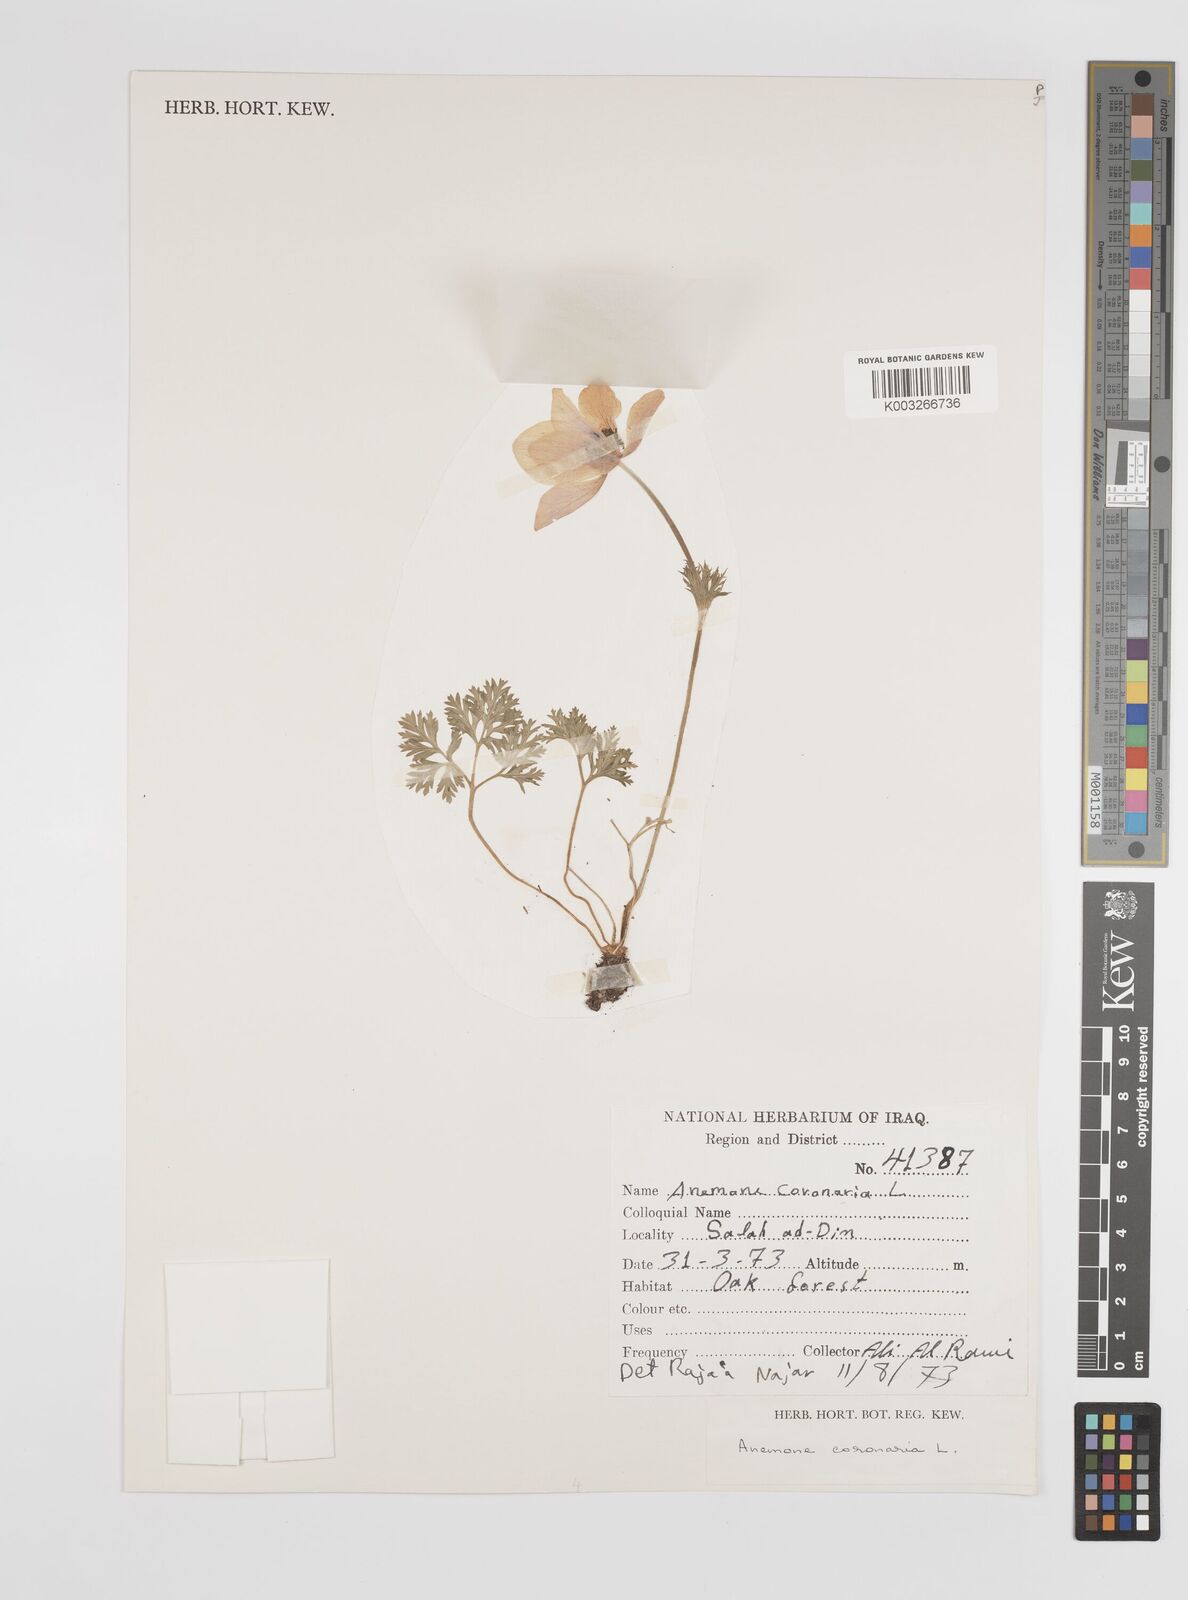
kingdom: Plantae
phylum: Tracheophyta
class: Magnoliopsida
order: Ranunculales
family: Ranunculaceae
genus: Anemone
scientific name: Anemone coronaria
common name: Poppy anemone
